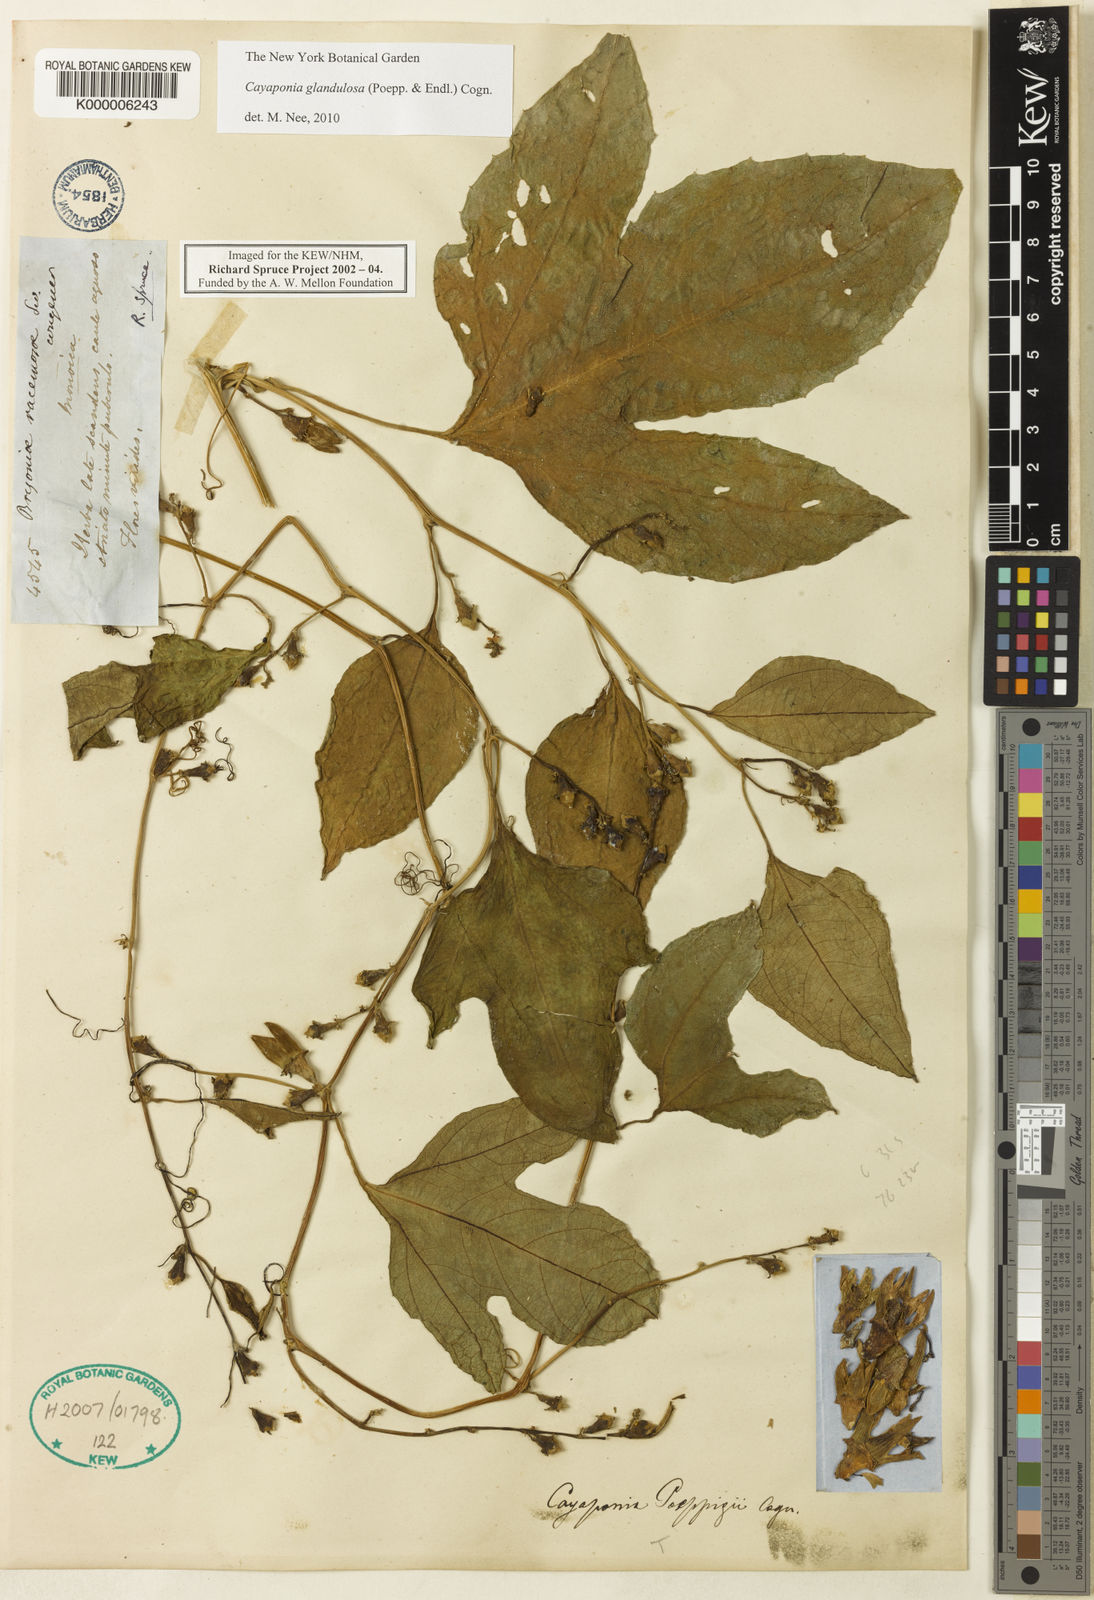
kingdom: Plantae
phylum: Tracheophyta
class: Magnoliopsida
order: Cucurbitales
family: Cucurbitaceae
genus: Cayaponia
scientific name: Cayaponia glandulosa
